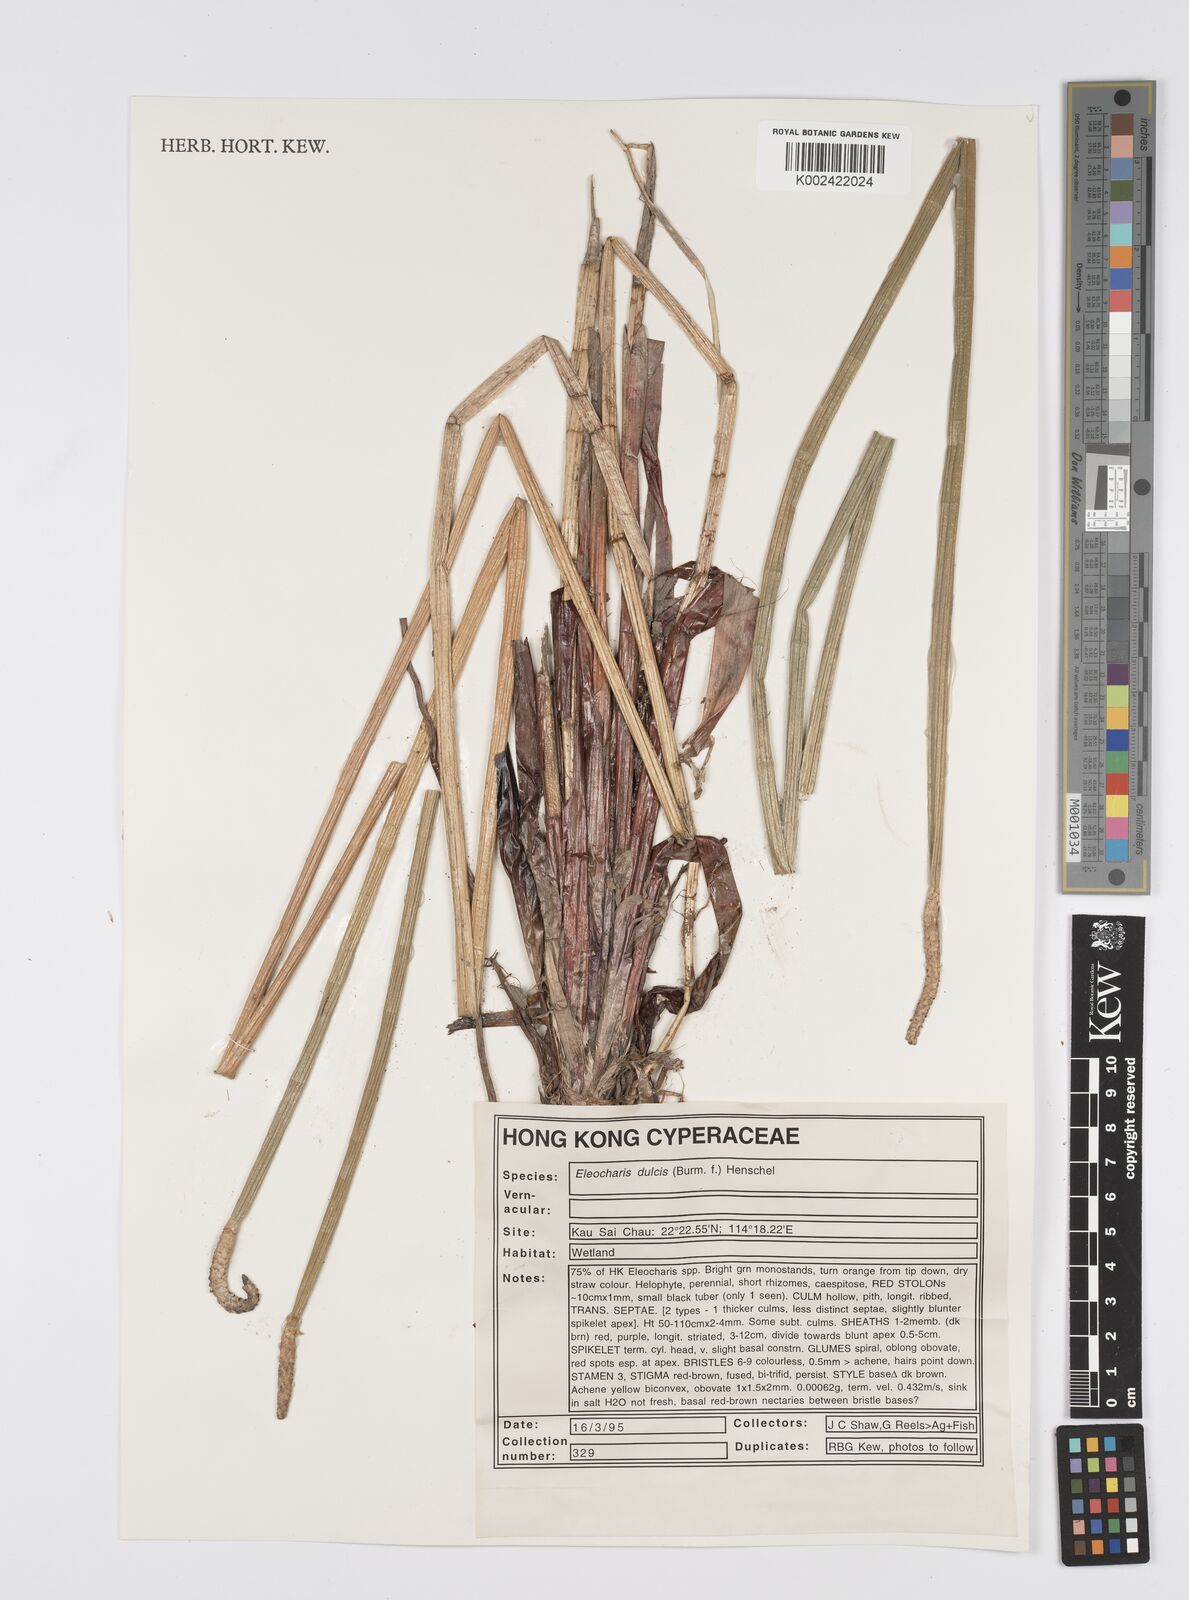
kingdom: Plantae
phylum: Tracheophyta
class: Liliopsida
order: Poales
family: Cyperaceae
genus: Eleocharis
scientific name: Eleocharis dulcis
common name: Chinese water chestnut
